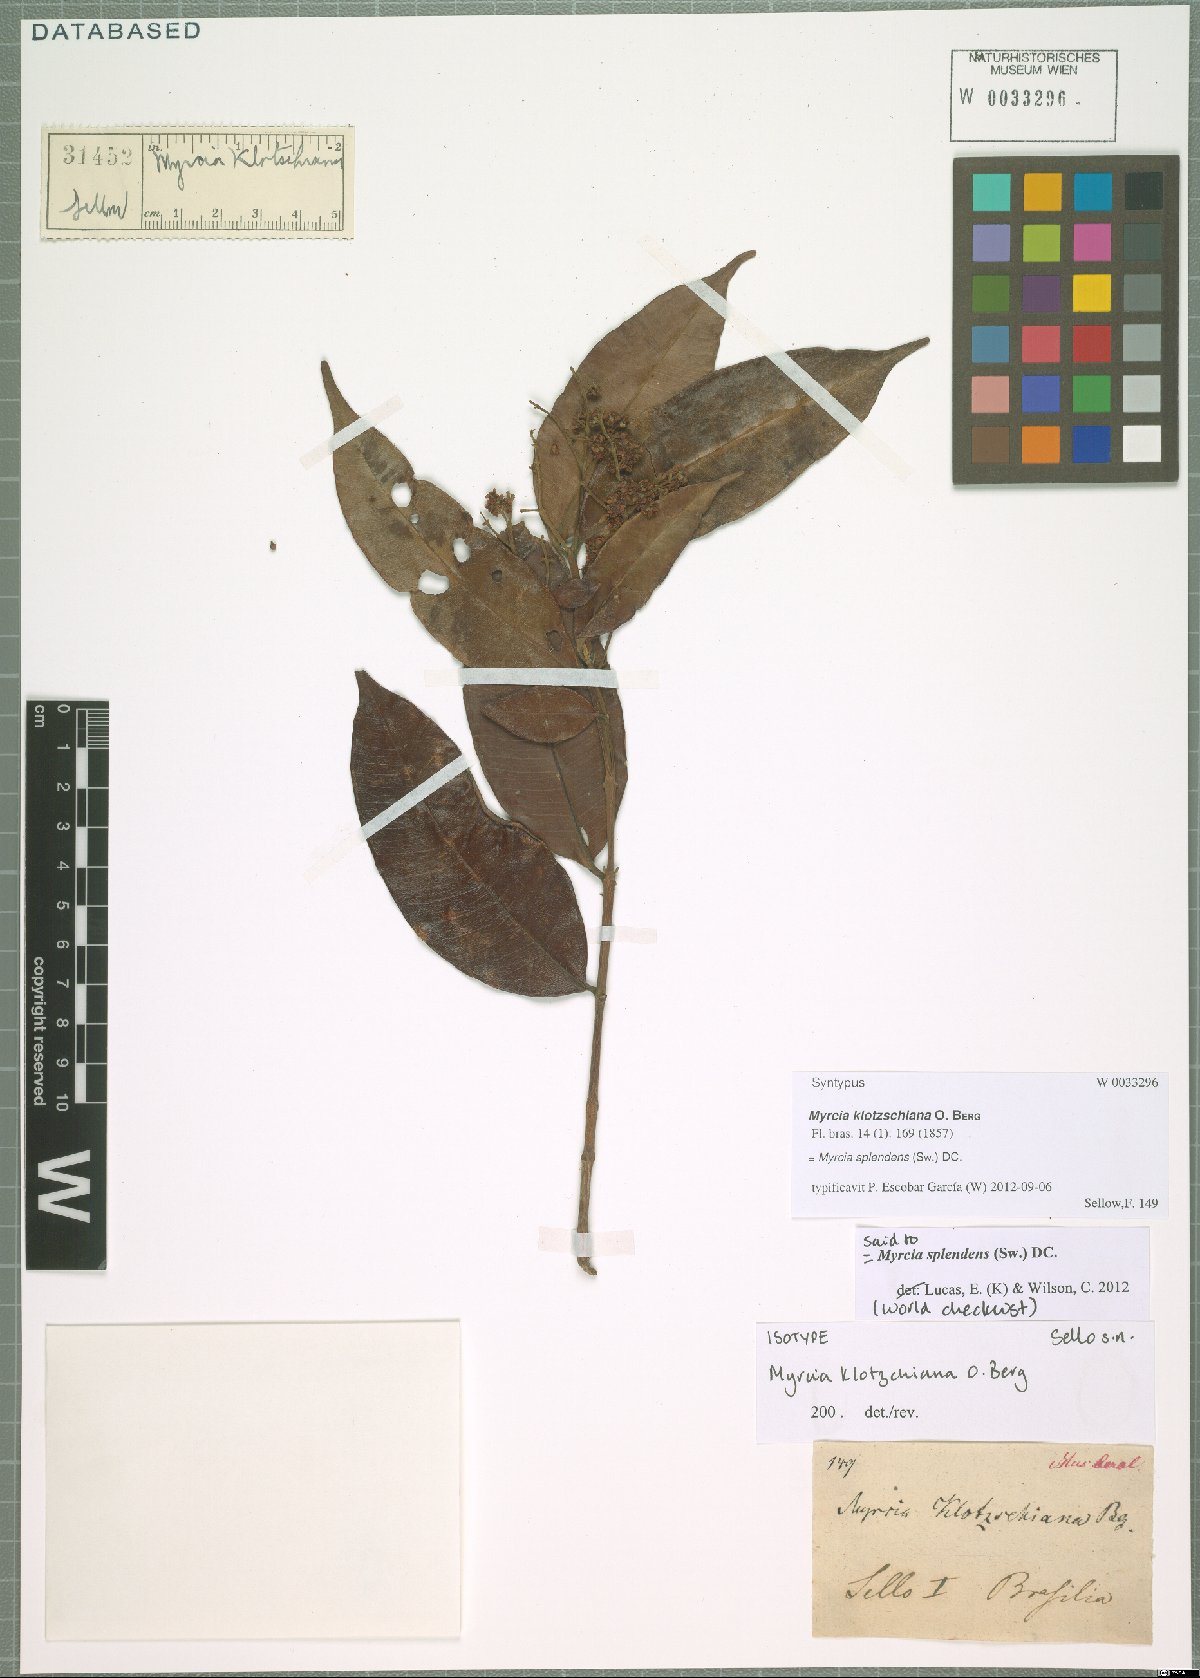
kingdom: Plantae
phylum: Tracheophyta
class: Magnoliopsida
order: Myrtales
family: Myrtaceae
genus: Myrcia
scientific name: Myrcia splendens
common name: Surinam cherry
